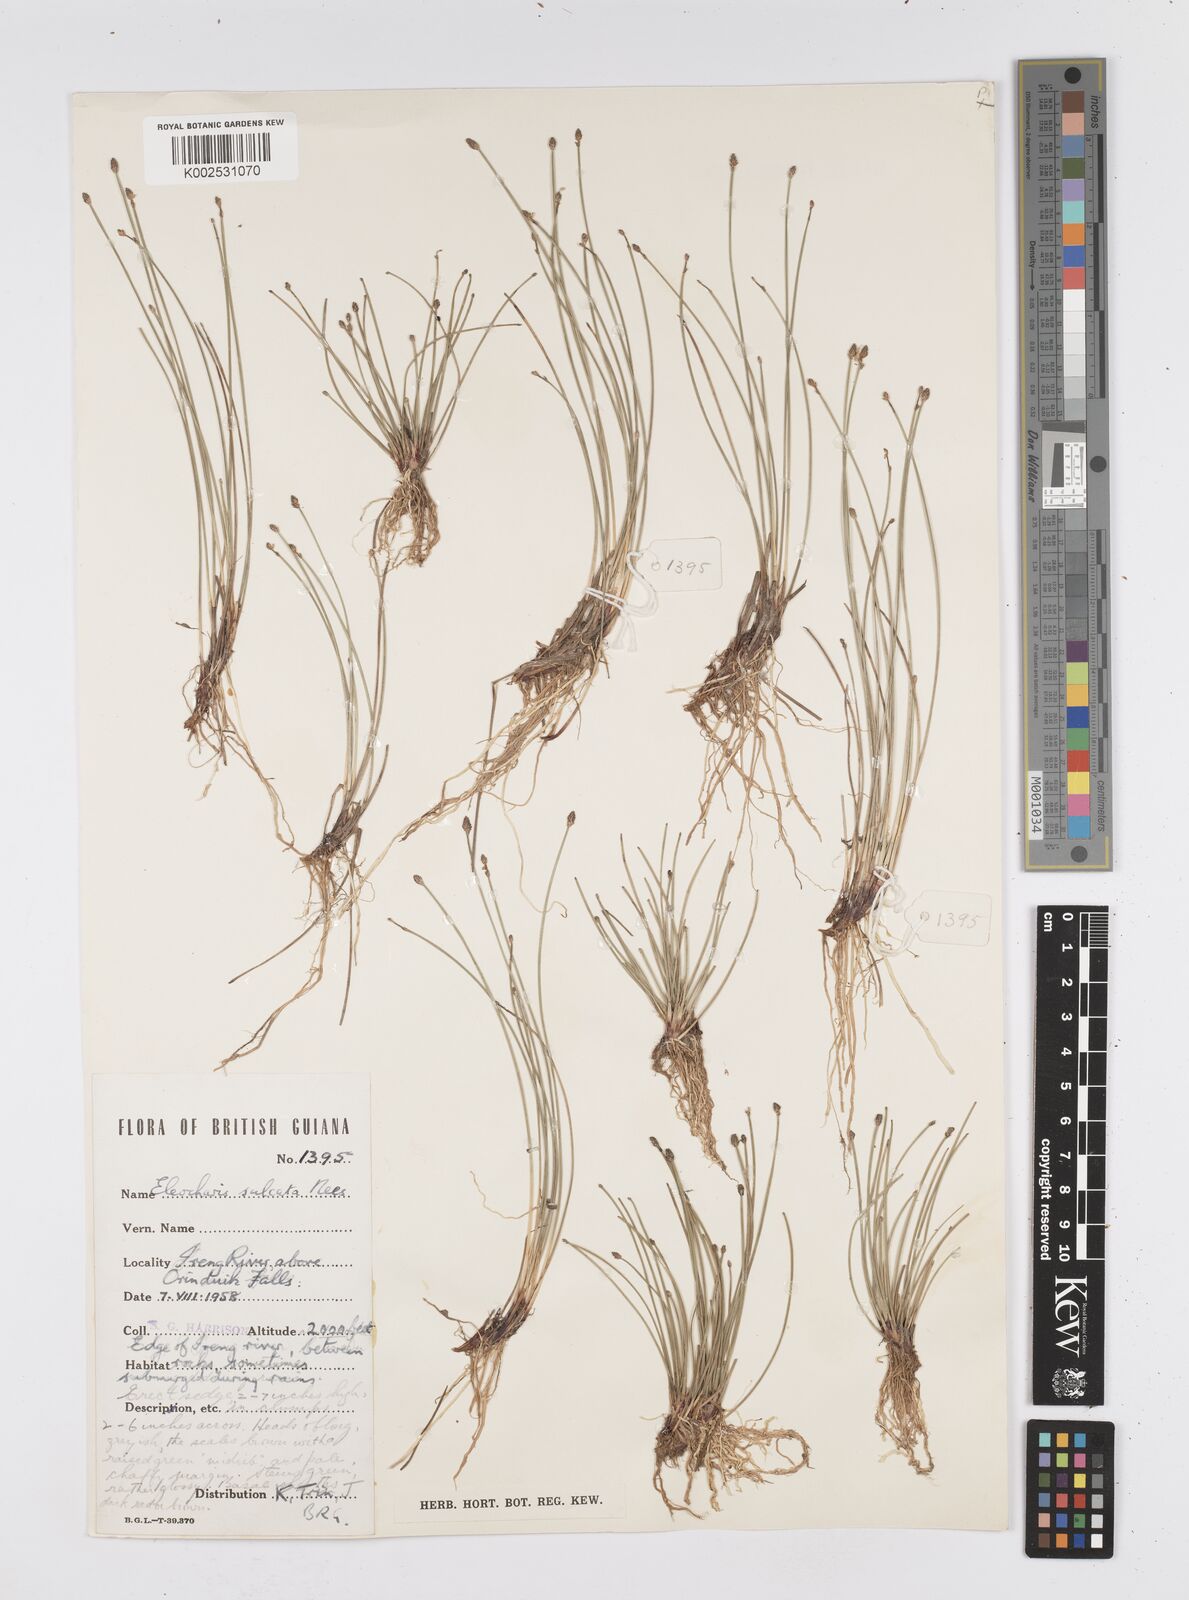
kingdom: Plantae
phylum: Tracheophyta
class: Liliopsida
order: Poales
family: Cyperaceae
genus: Eleocharis
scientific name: Eleocharis filiculmis
